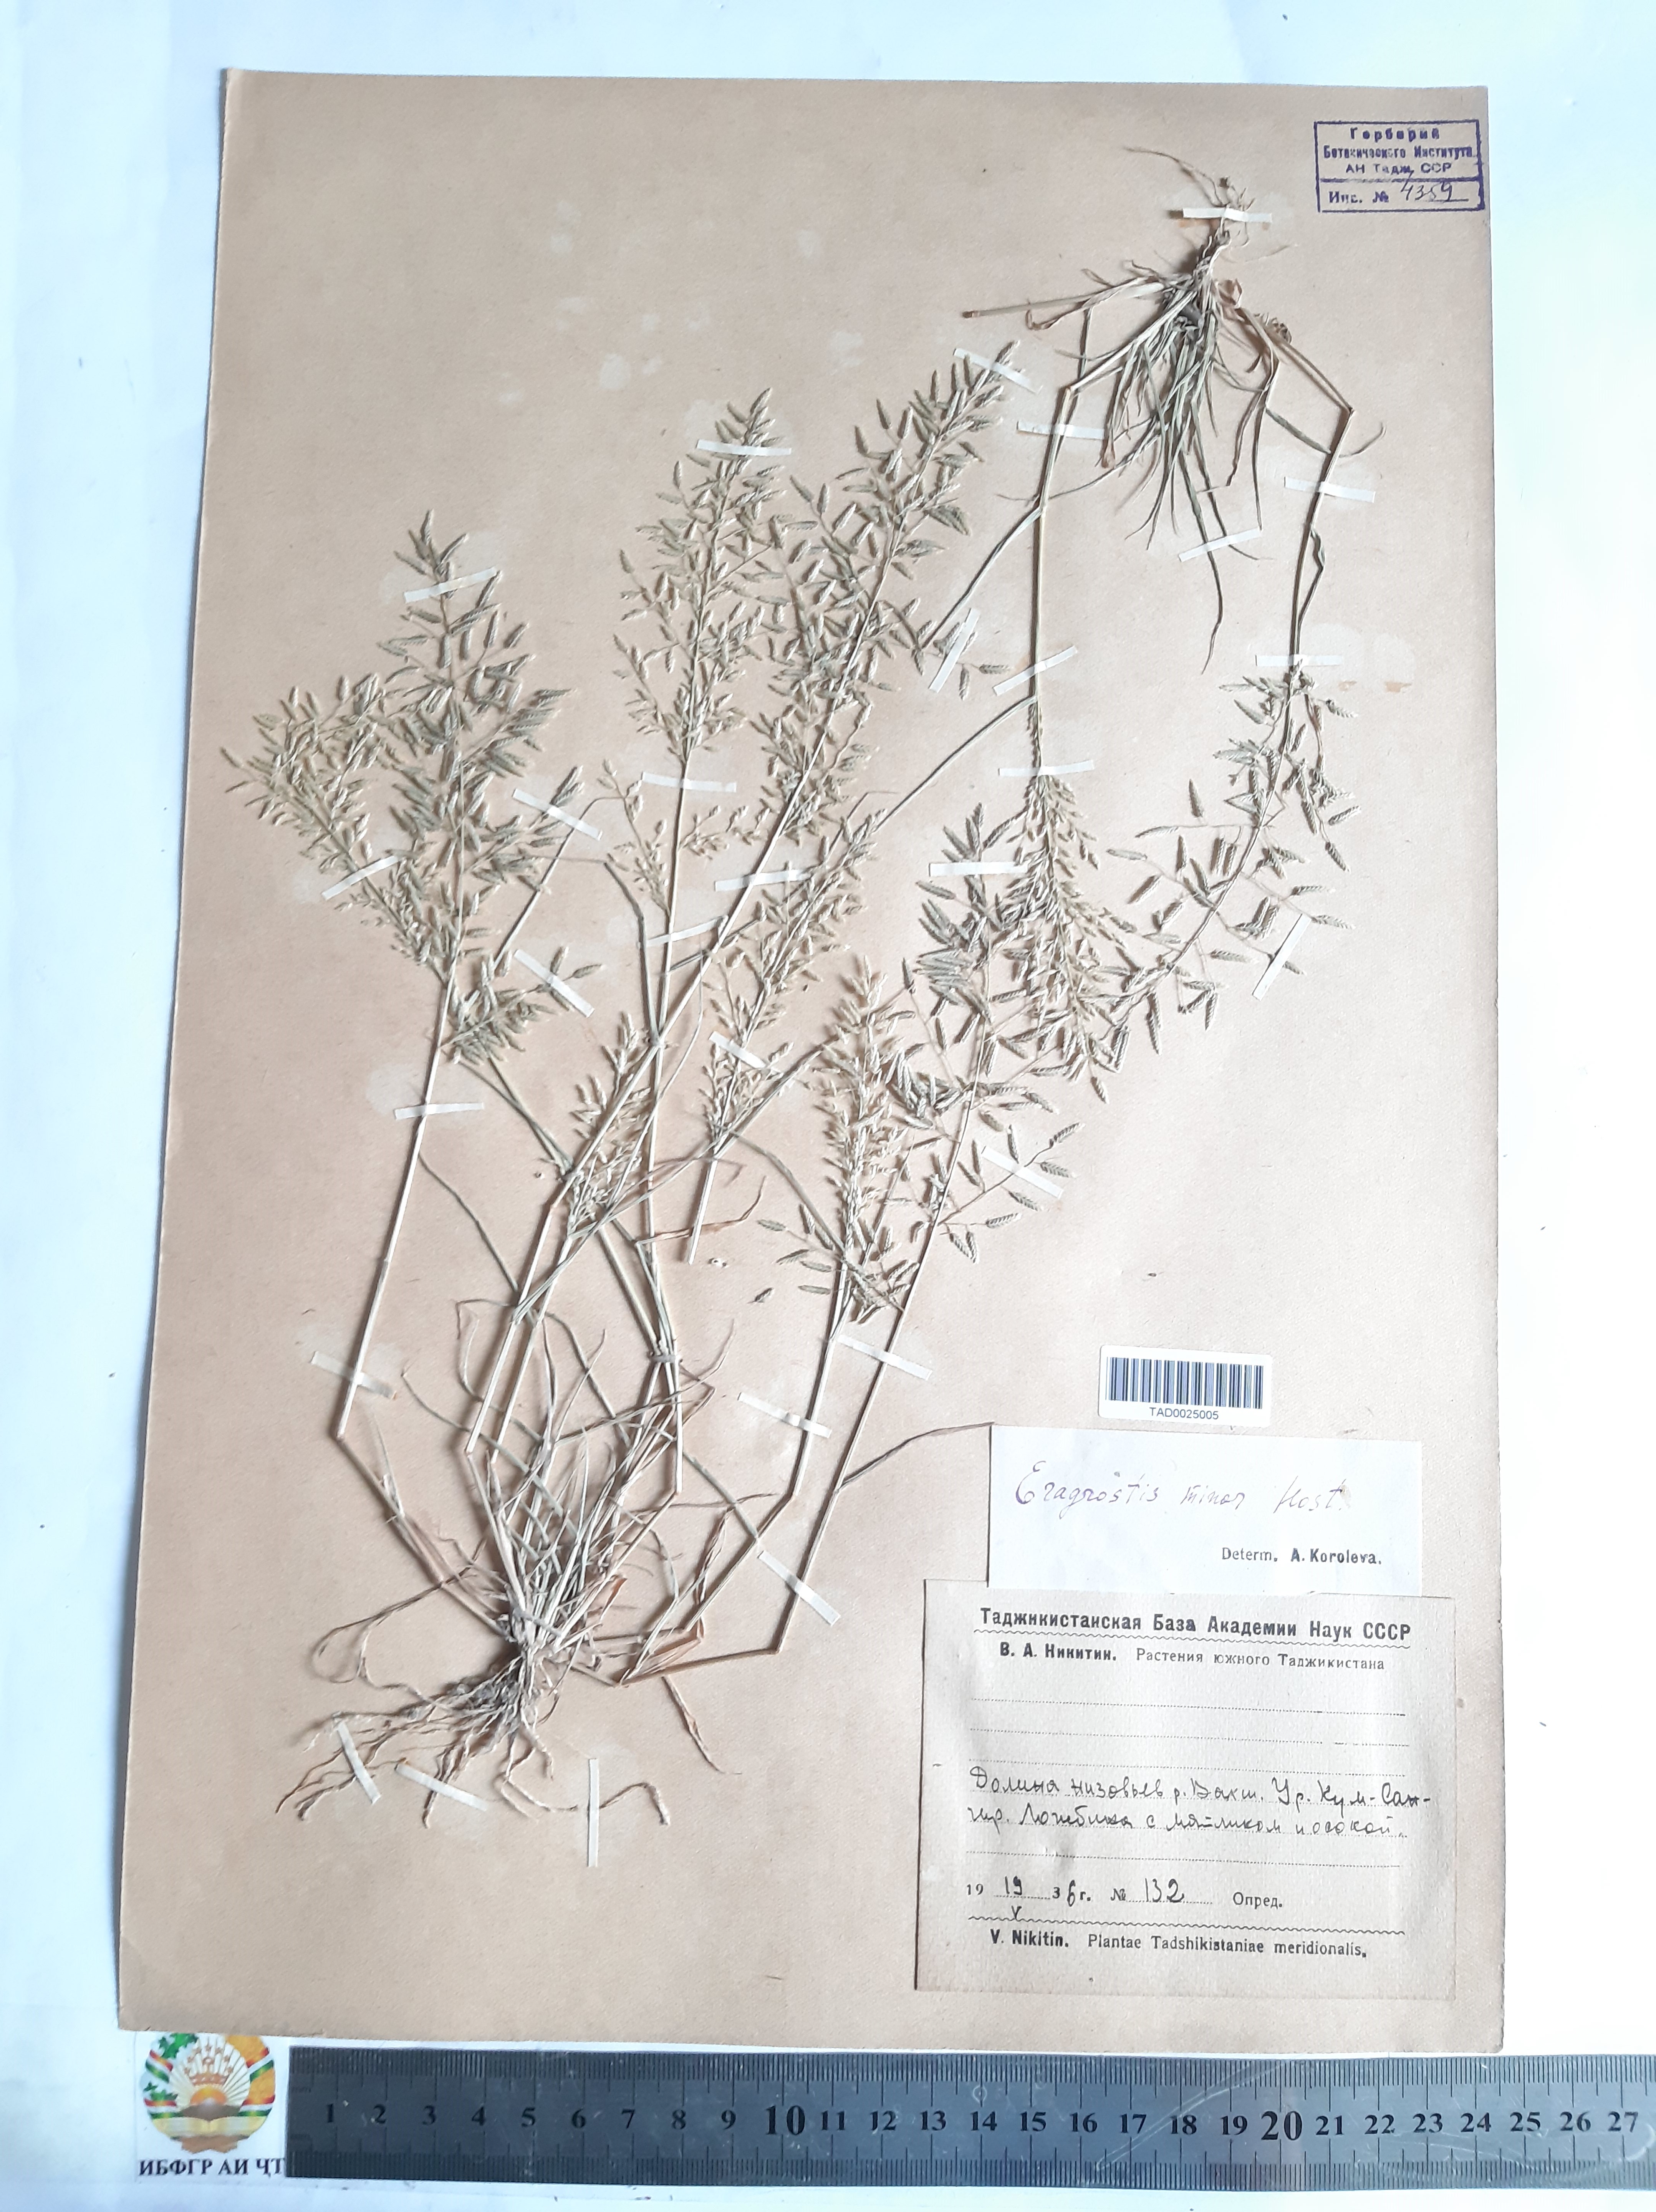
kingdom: Plantae
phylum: Tracheophyta
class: Liliopsida
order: Poales
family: Poaceae
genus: Eragrostis
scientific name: Eragrostis minor
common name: Small love-grass
